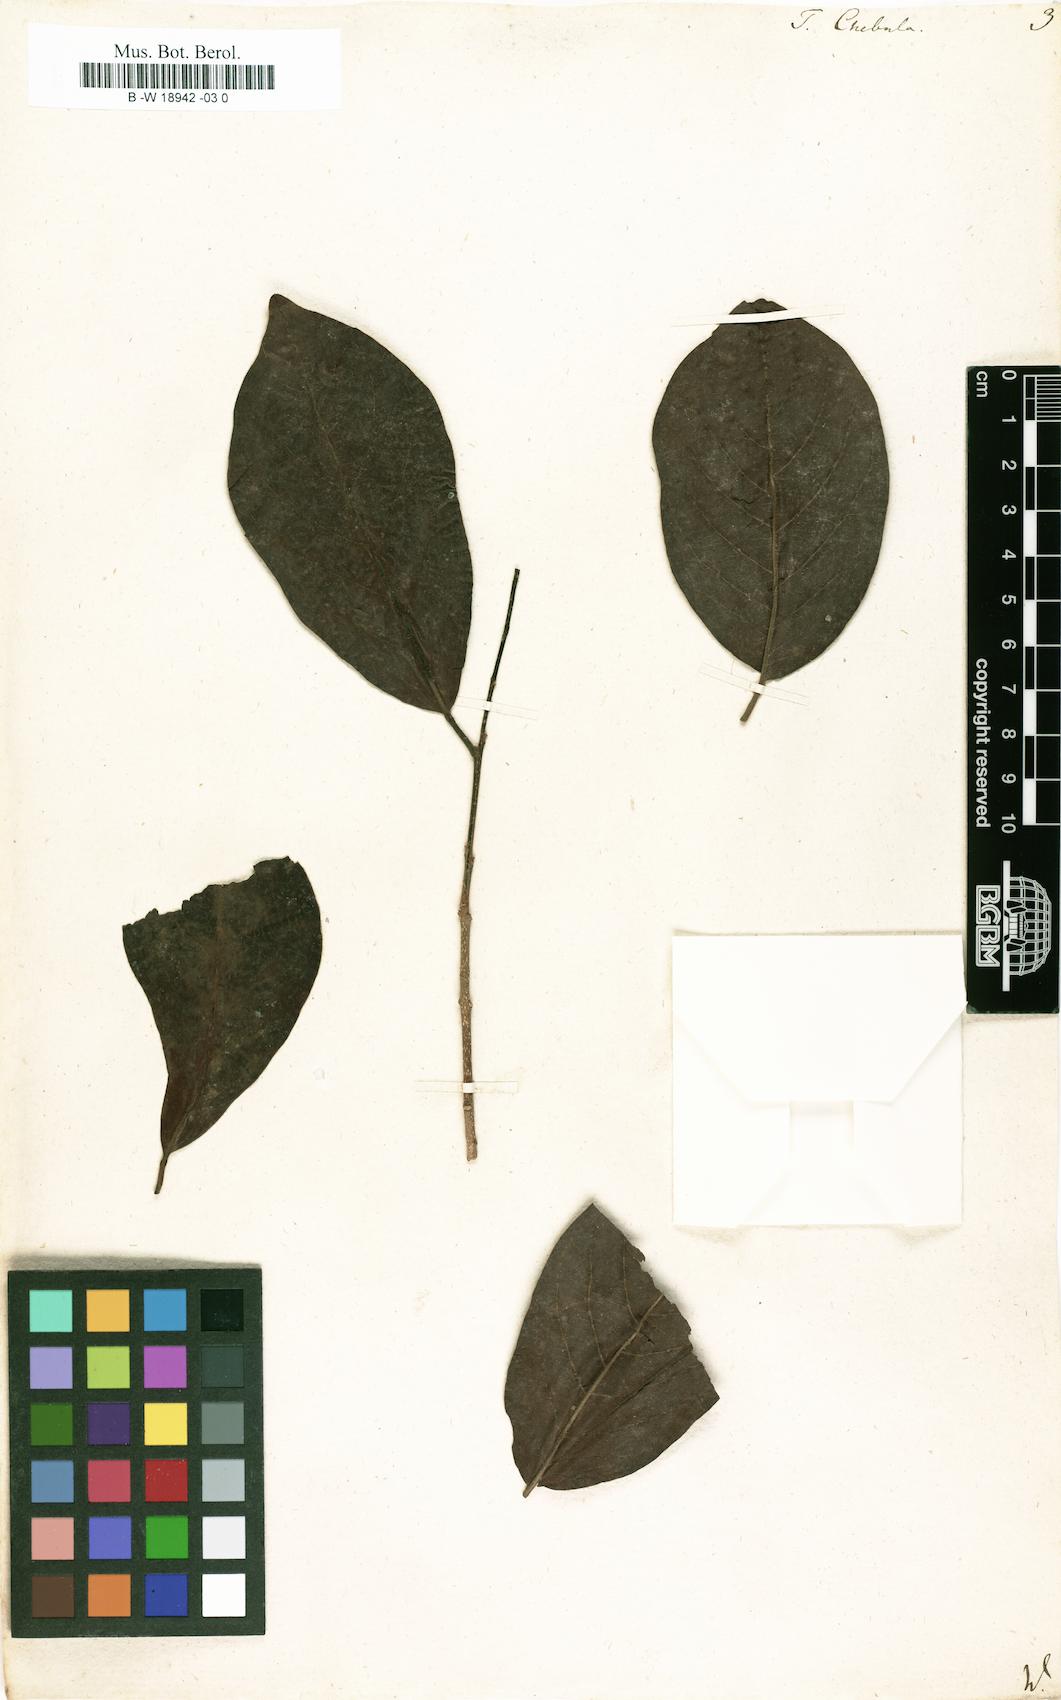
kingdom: Plantae
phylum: Tracheophyta
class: Magnoliopsida
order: Myrtales
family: Combretaceae
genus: Terminalia
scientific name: Terminalia chebula
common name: Myrobalan
